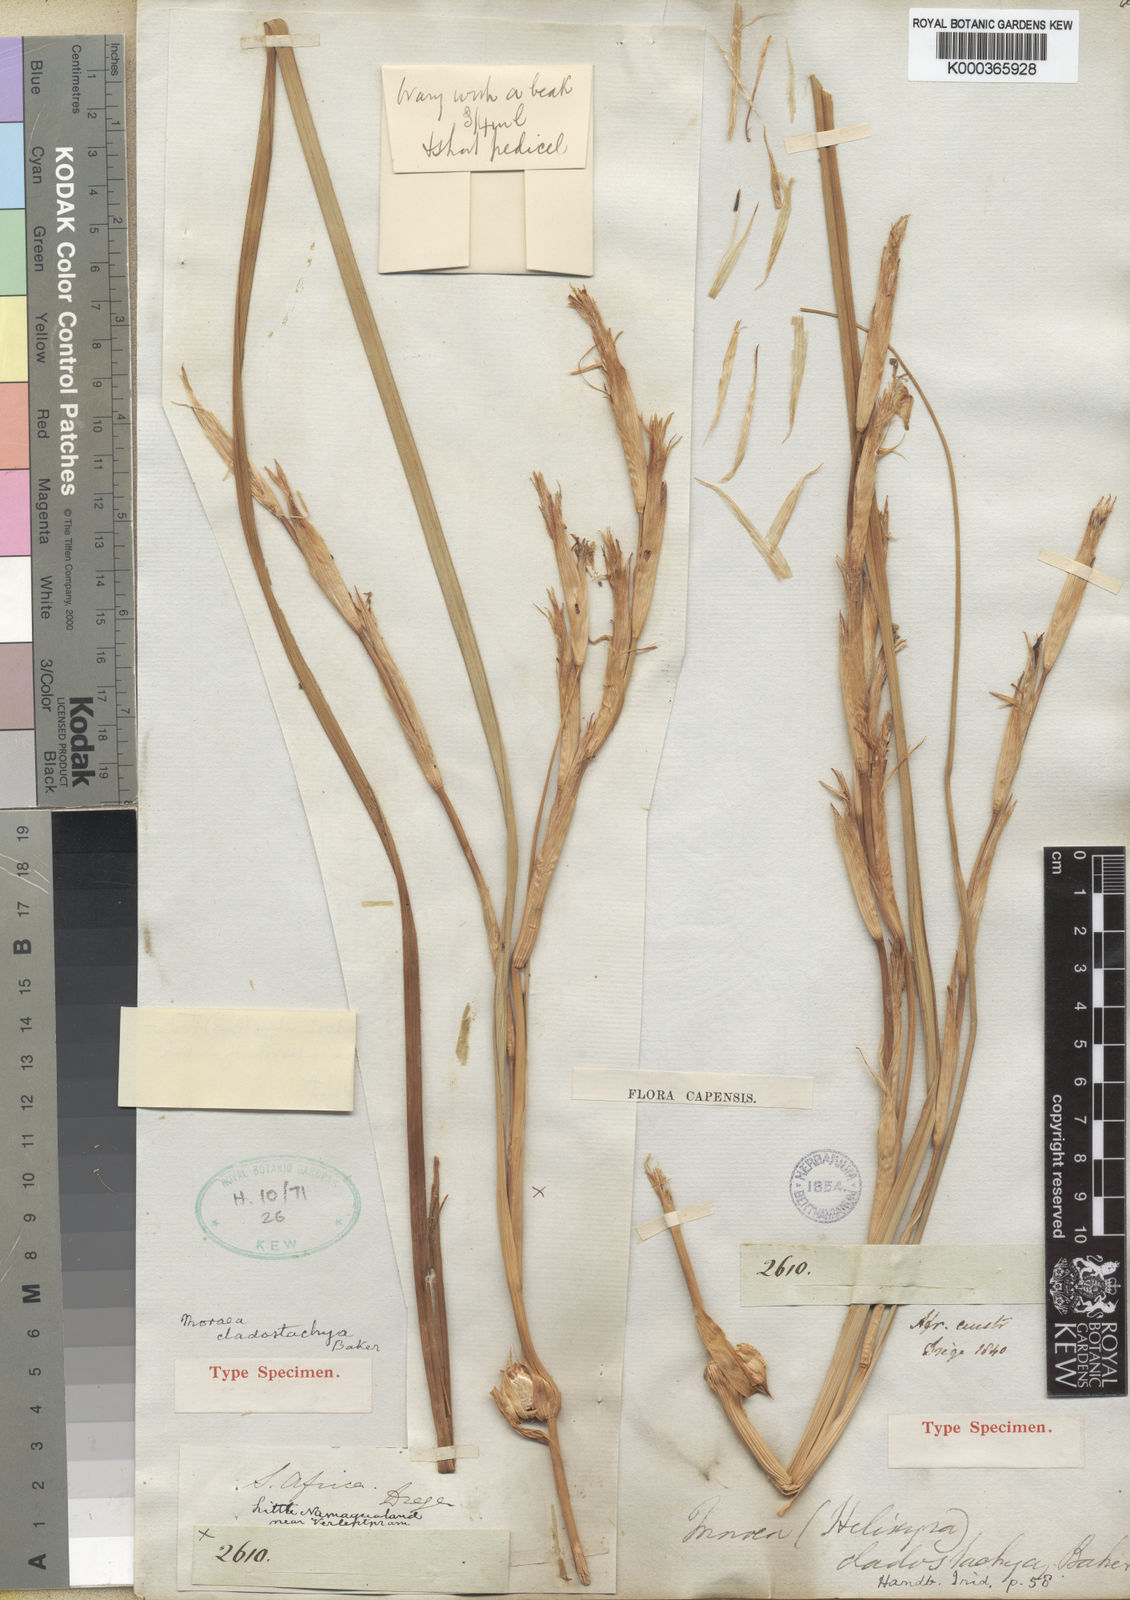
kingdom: Plantae
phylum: Tracheophyta
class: Liliopsida
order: Asparagales
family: Iridaceae
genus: Moraea
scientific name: Moraea simulans
